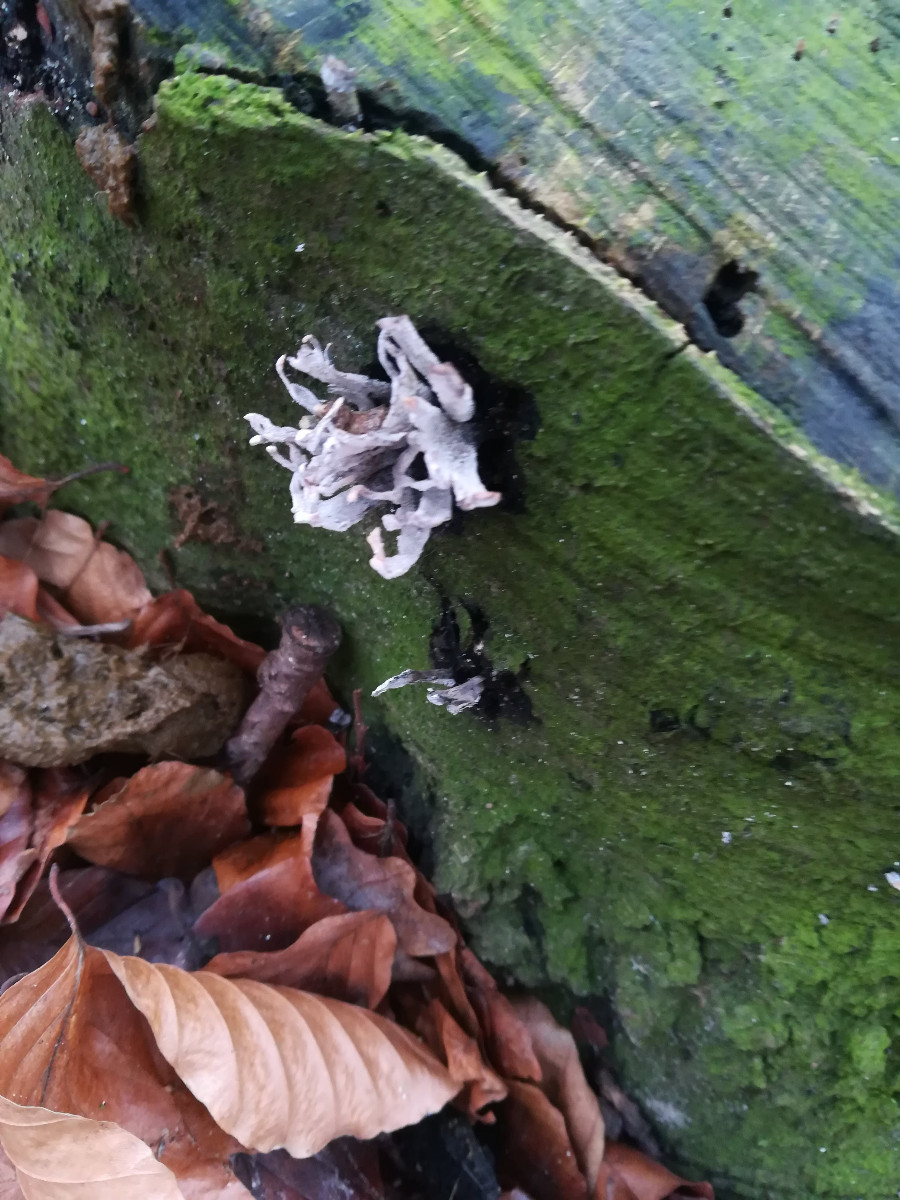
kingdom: Fungi
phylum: Ascomycota
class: Sordariomycetes
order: Xylariales
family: Xylariaceae
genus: Xylaria
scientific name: Xylaria hypoxylon
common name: grenet stødsvamp
